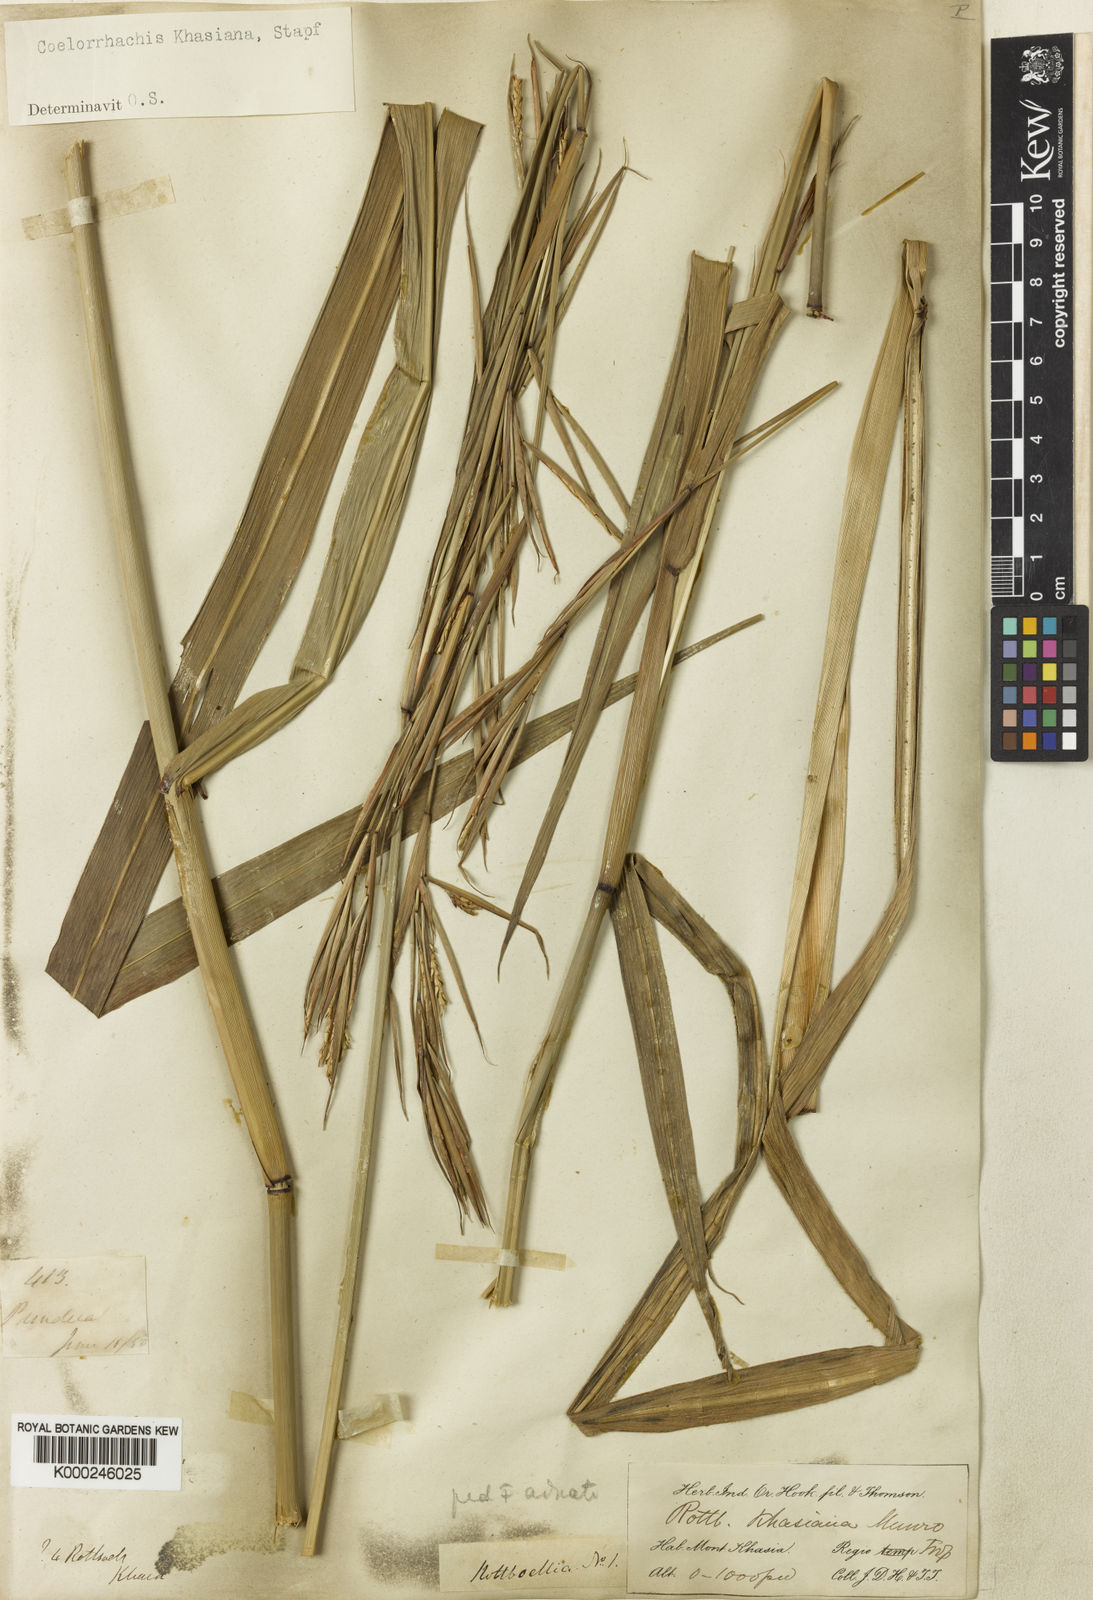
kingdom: Plantae
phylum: Tracheophyta
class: Liliopsida
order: Poales
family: Poaceae
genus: Rottboellia
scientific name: Rottboellia striata
